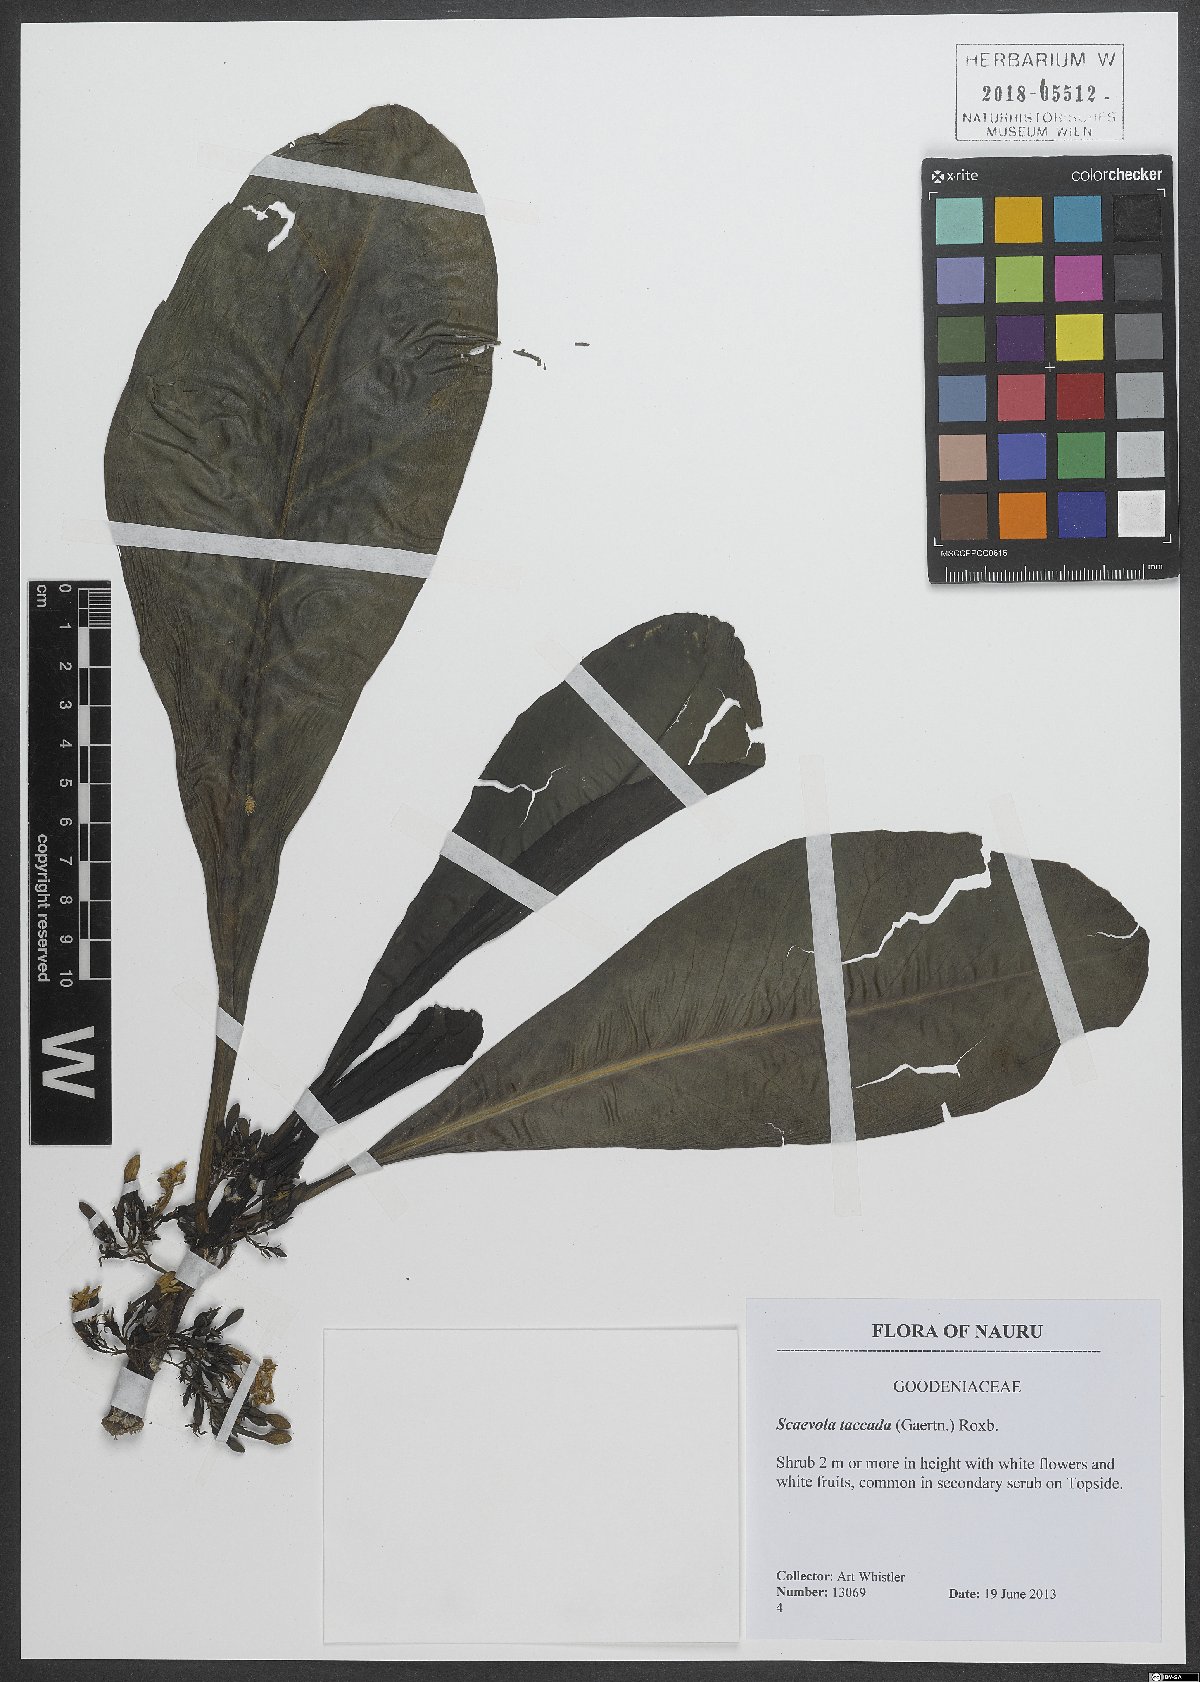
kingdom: Plantae
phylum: Tracheophyta
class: Magnoliopsida
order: Asterales
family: Goodeniaceae
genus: Scaevola
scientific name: Scaevola taccada
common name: Sea lettucetree
